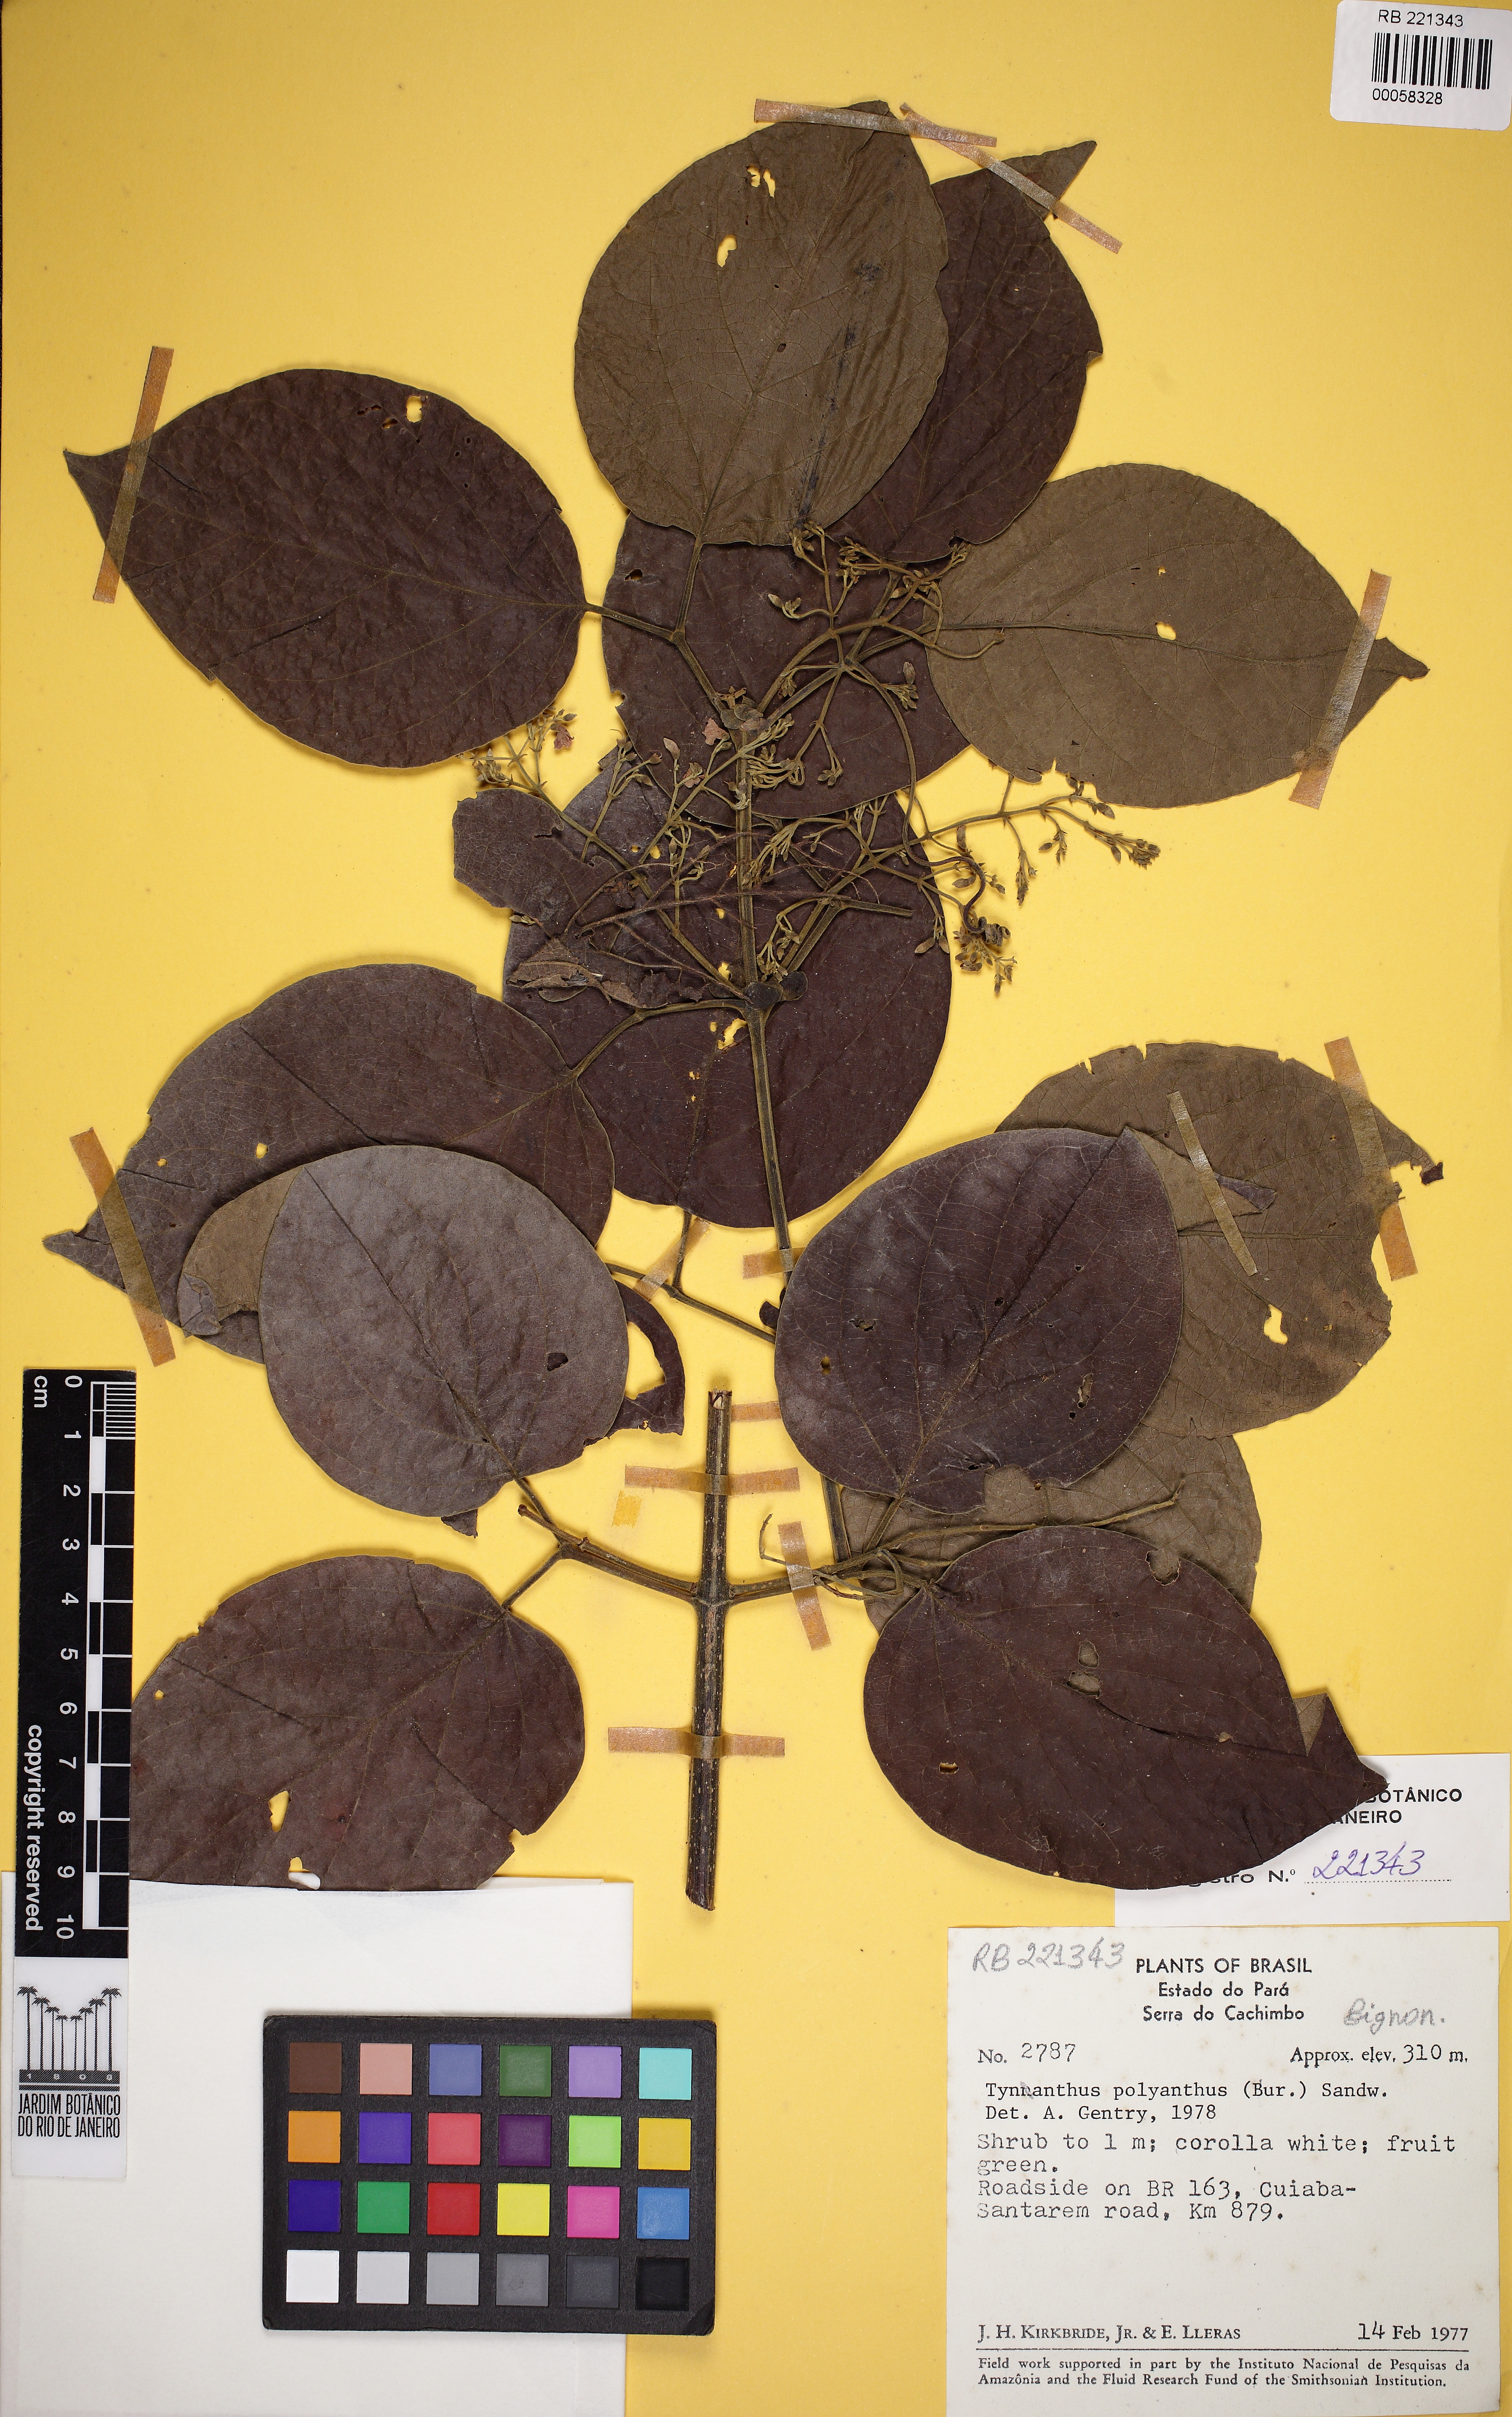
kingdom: Plantae
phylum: Tracheophyta
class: Magnoliopsida
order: Lamiales
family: Bignoniaceae
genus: Tynanthus
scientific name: Tynanthus polyanthus
